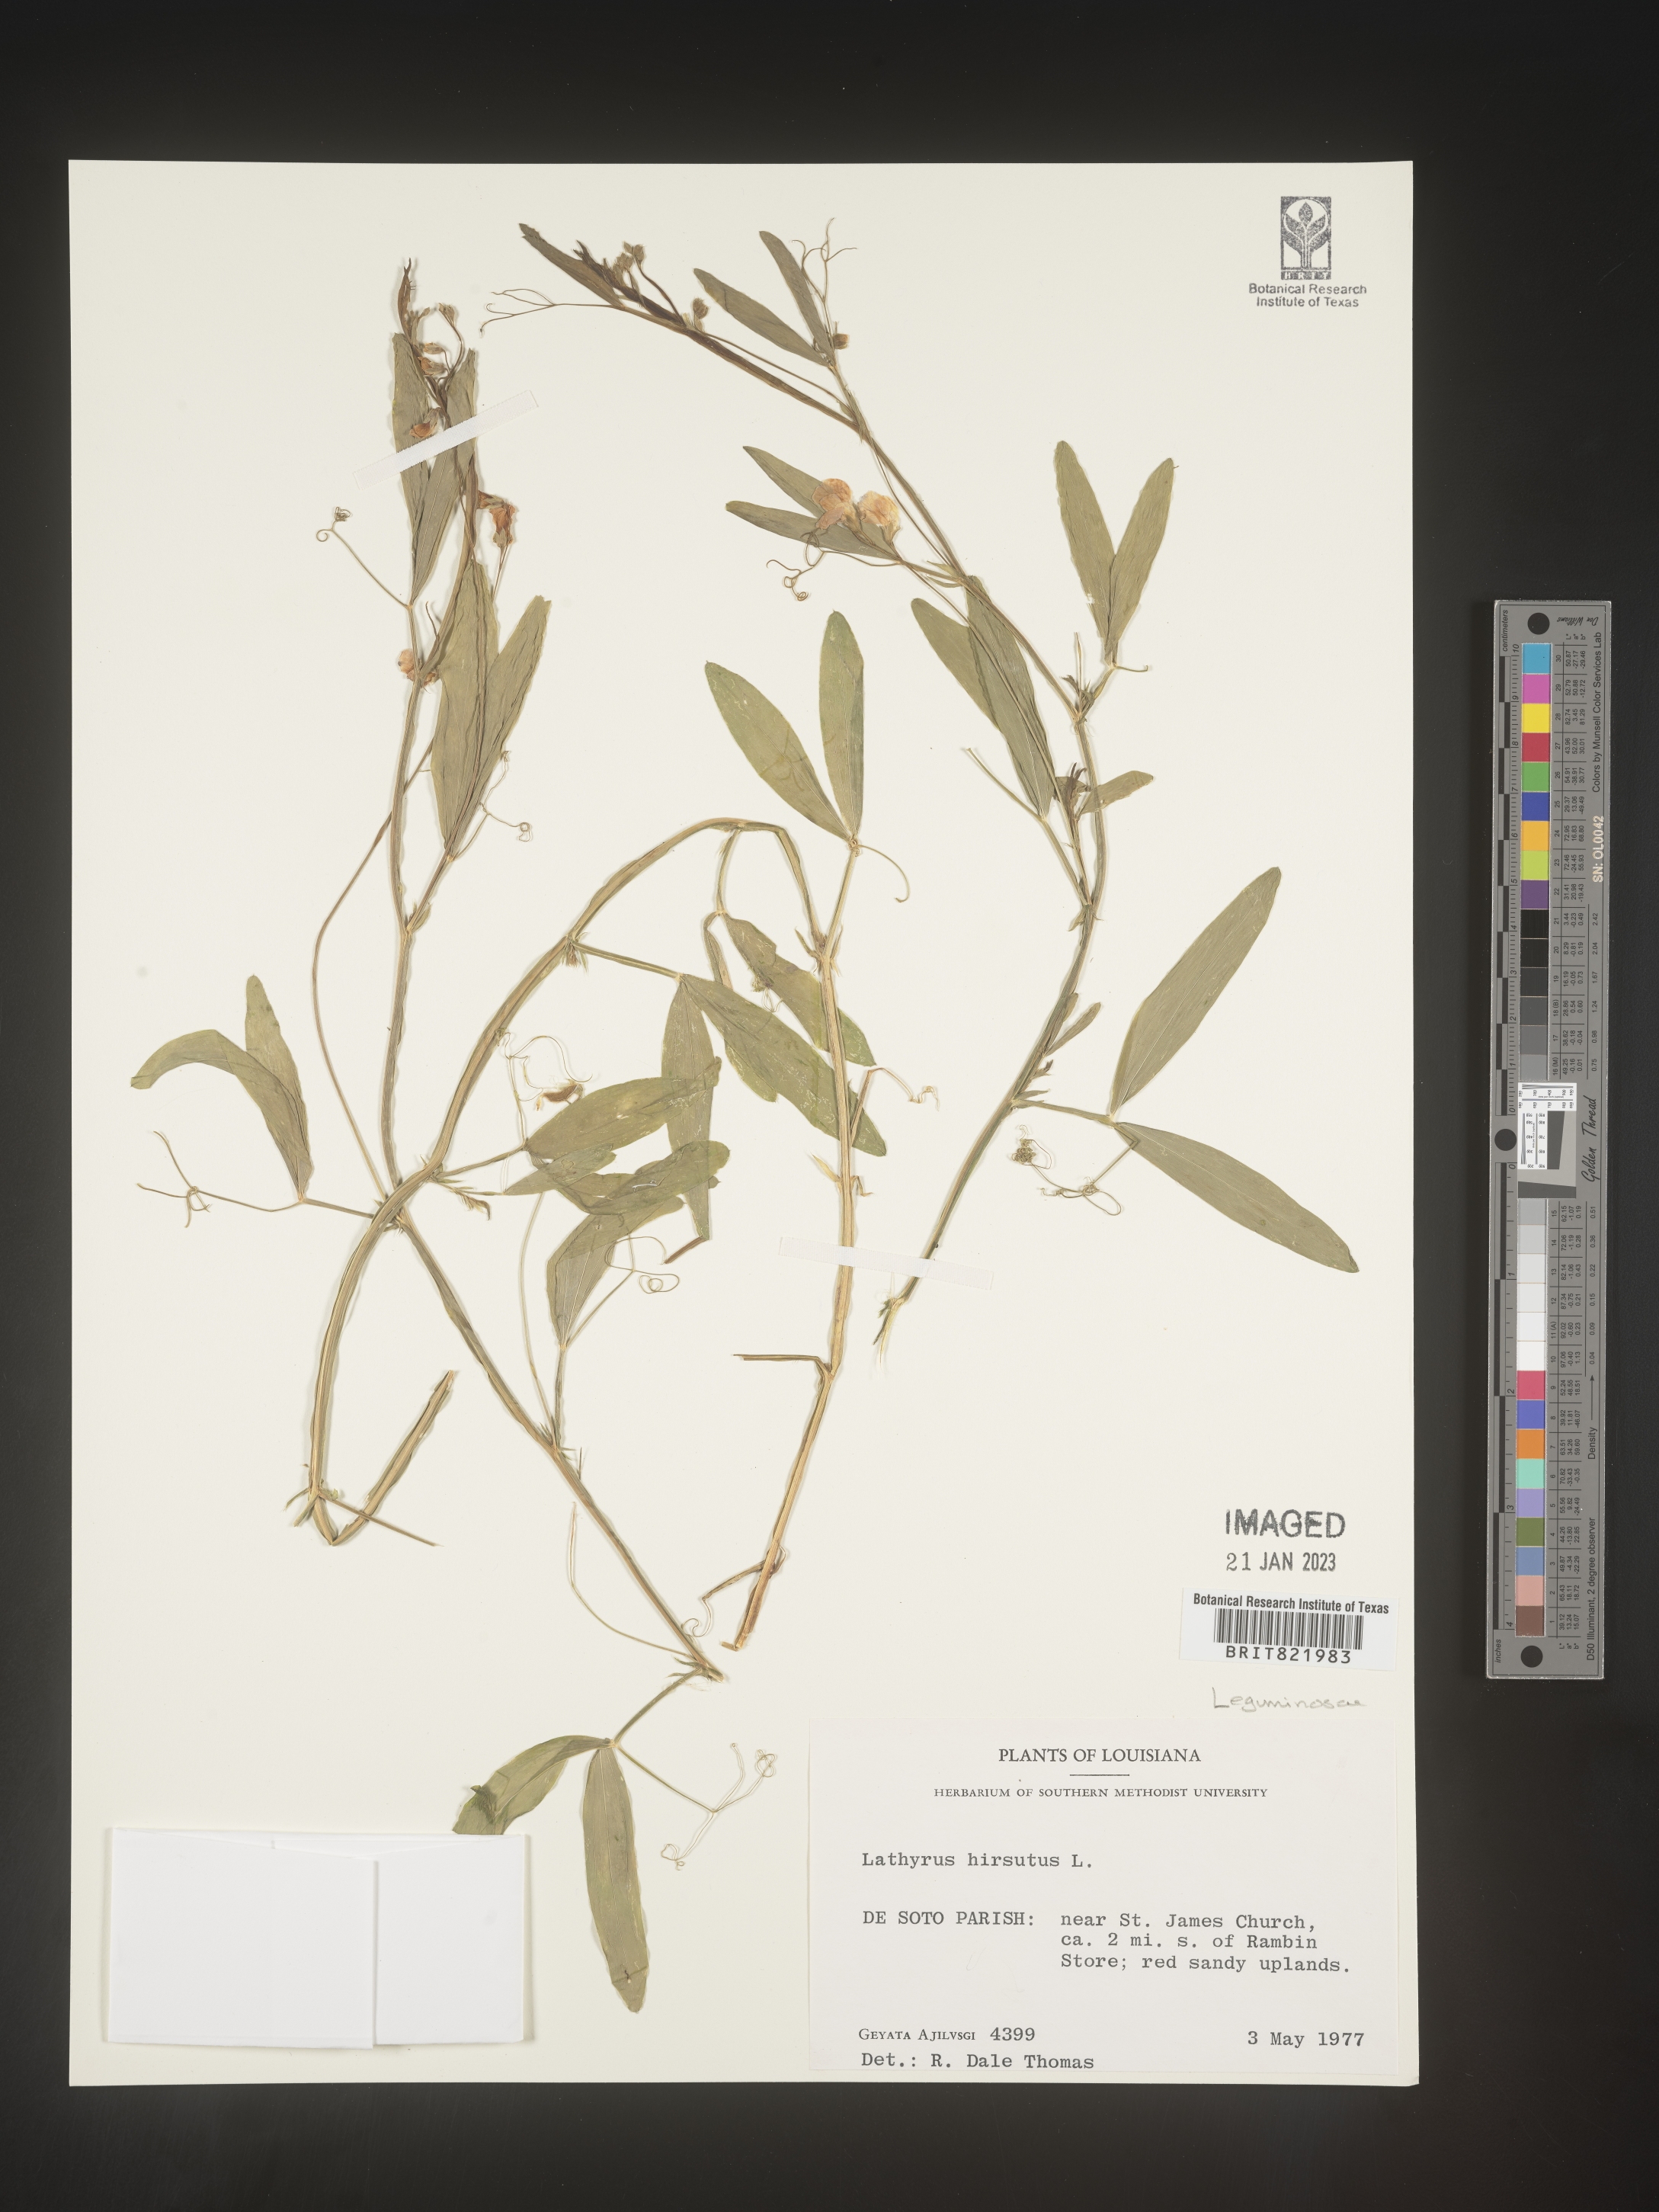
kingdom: Plantae
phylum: Tracheophyta
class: Magnoliopsida
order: Fabales
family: Fabaceae
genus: Lathyrus
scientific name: Lathyrus hirsutus
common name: Hairy vetchling
